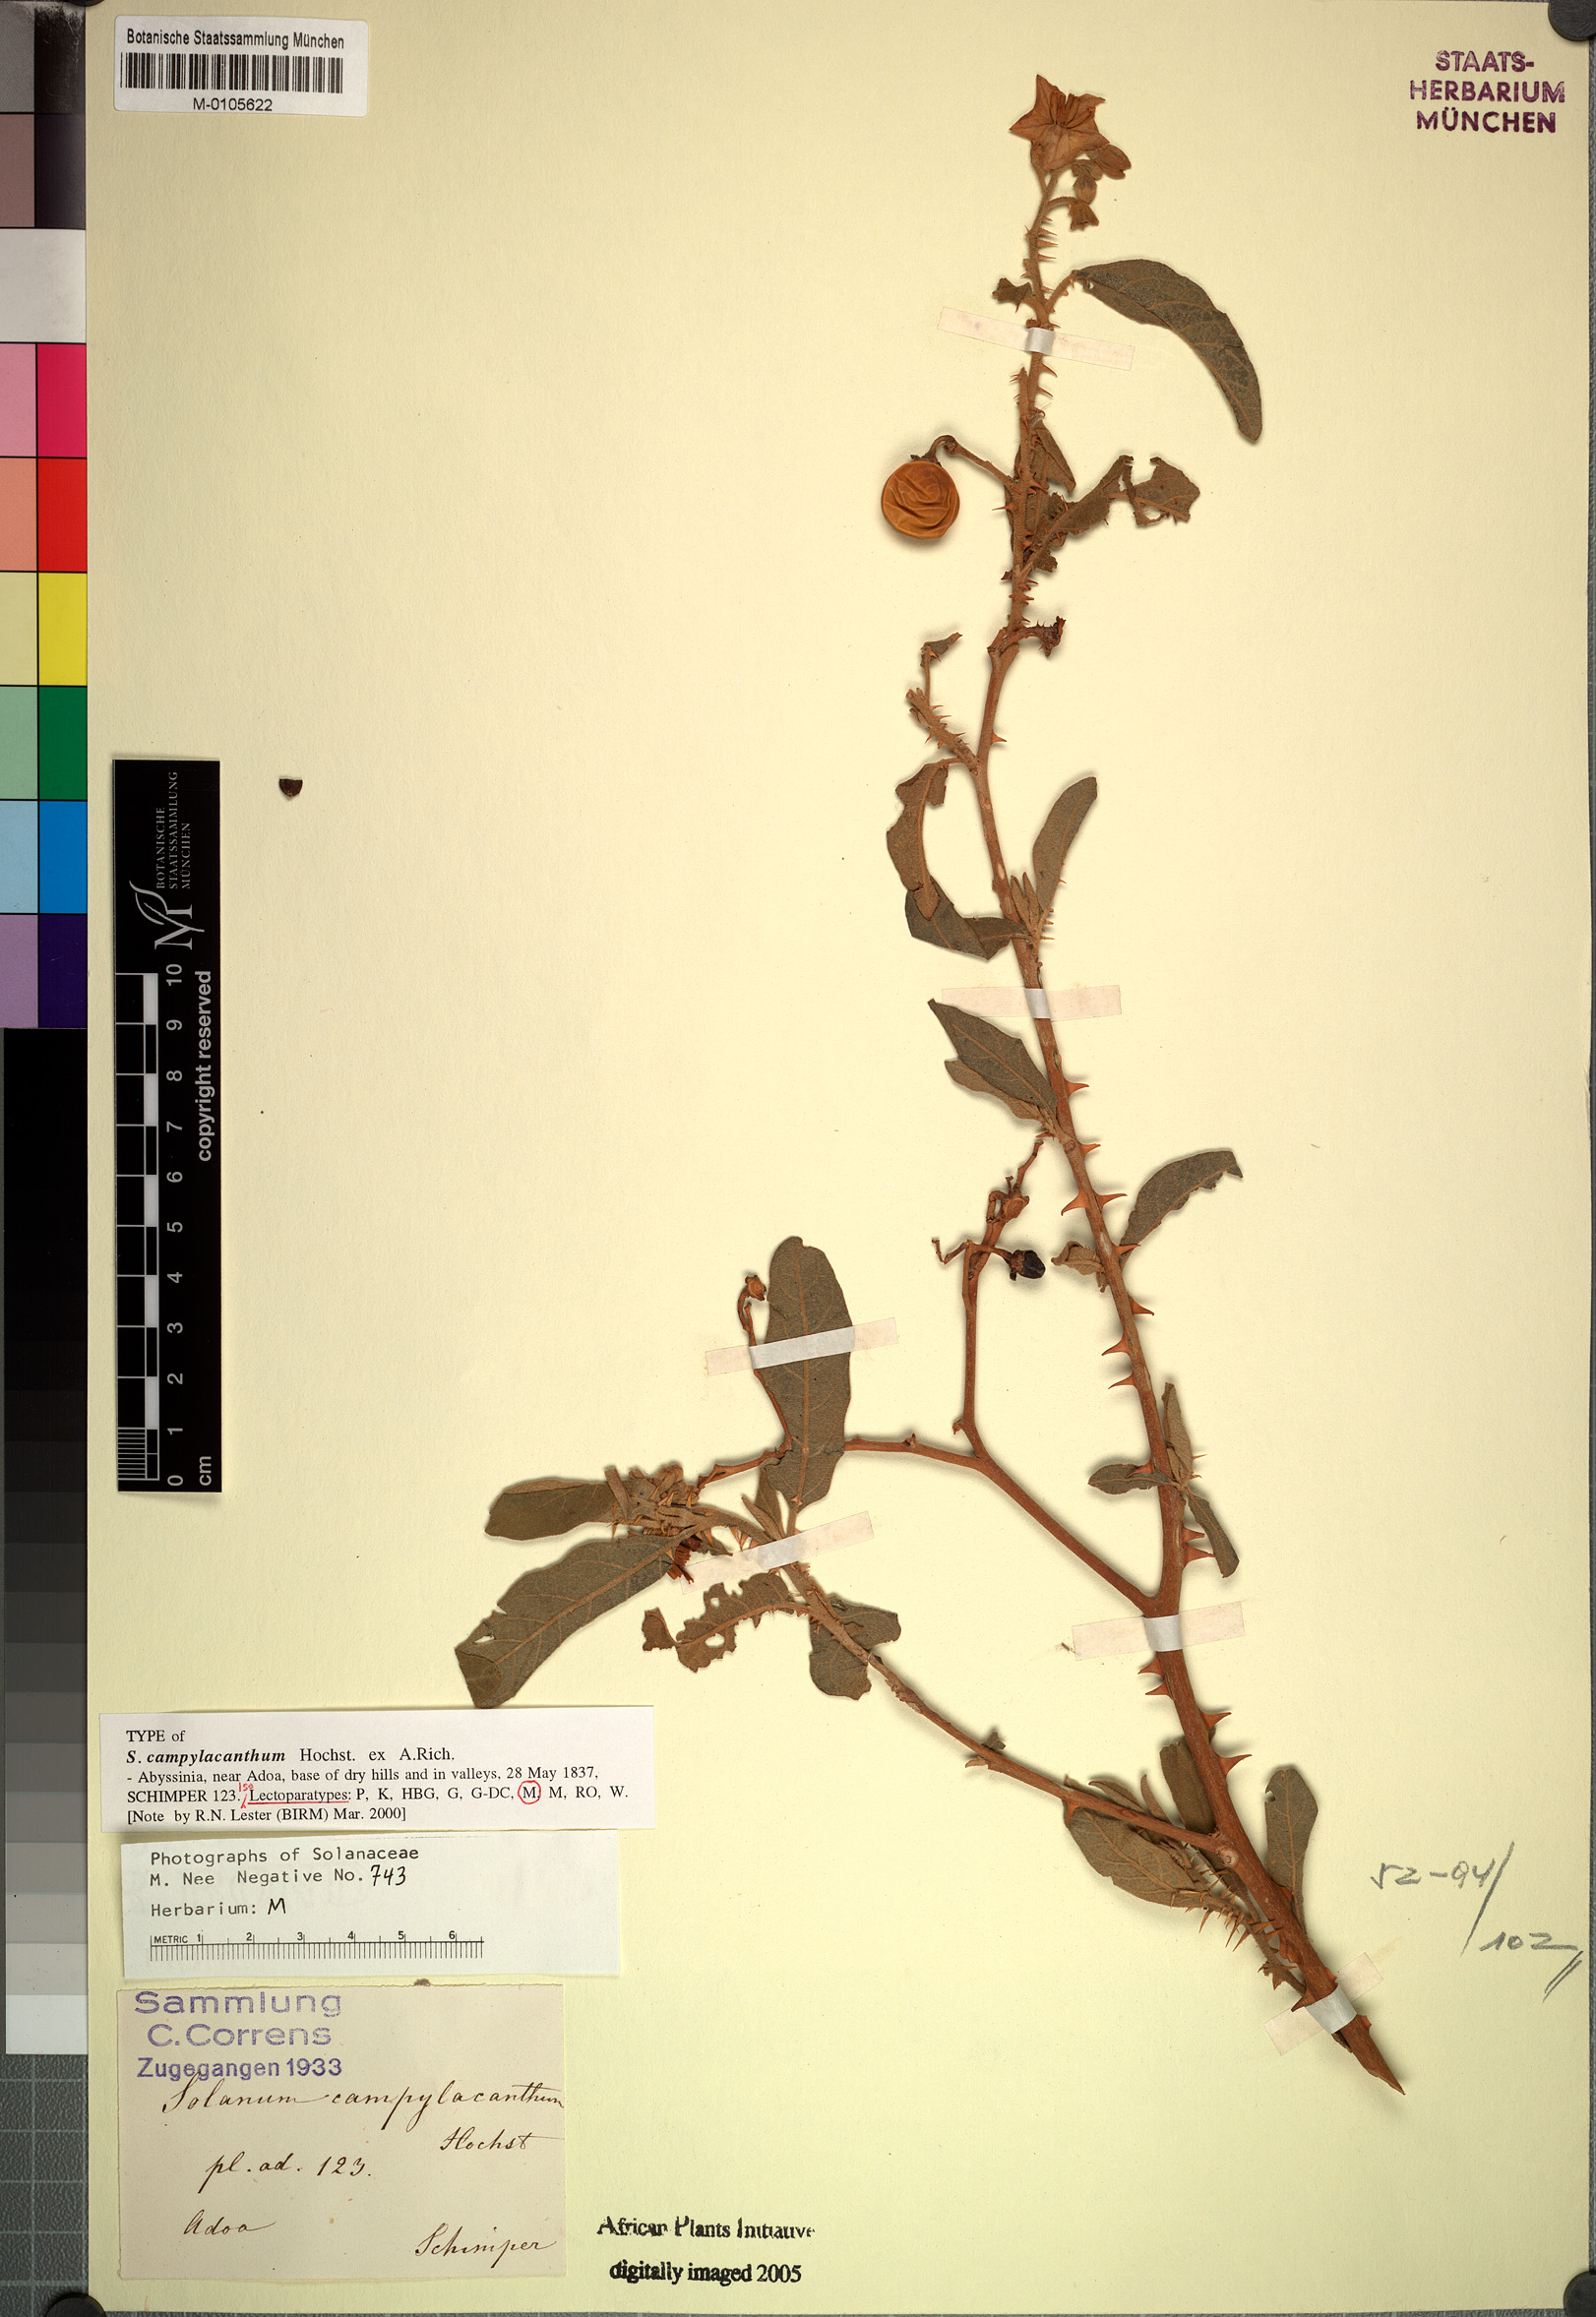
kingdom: Plantae
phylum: Tracheophyta
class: Magnoliopsida
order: Solanales
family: Solanaceae
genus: Solanum
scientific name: Solanum campylacanthum
